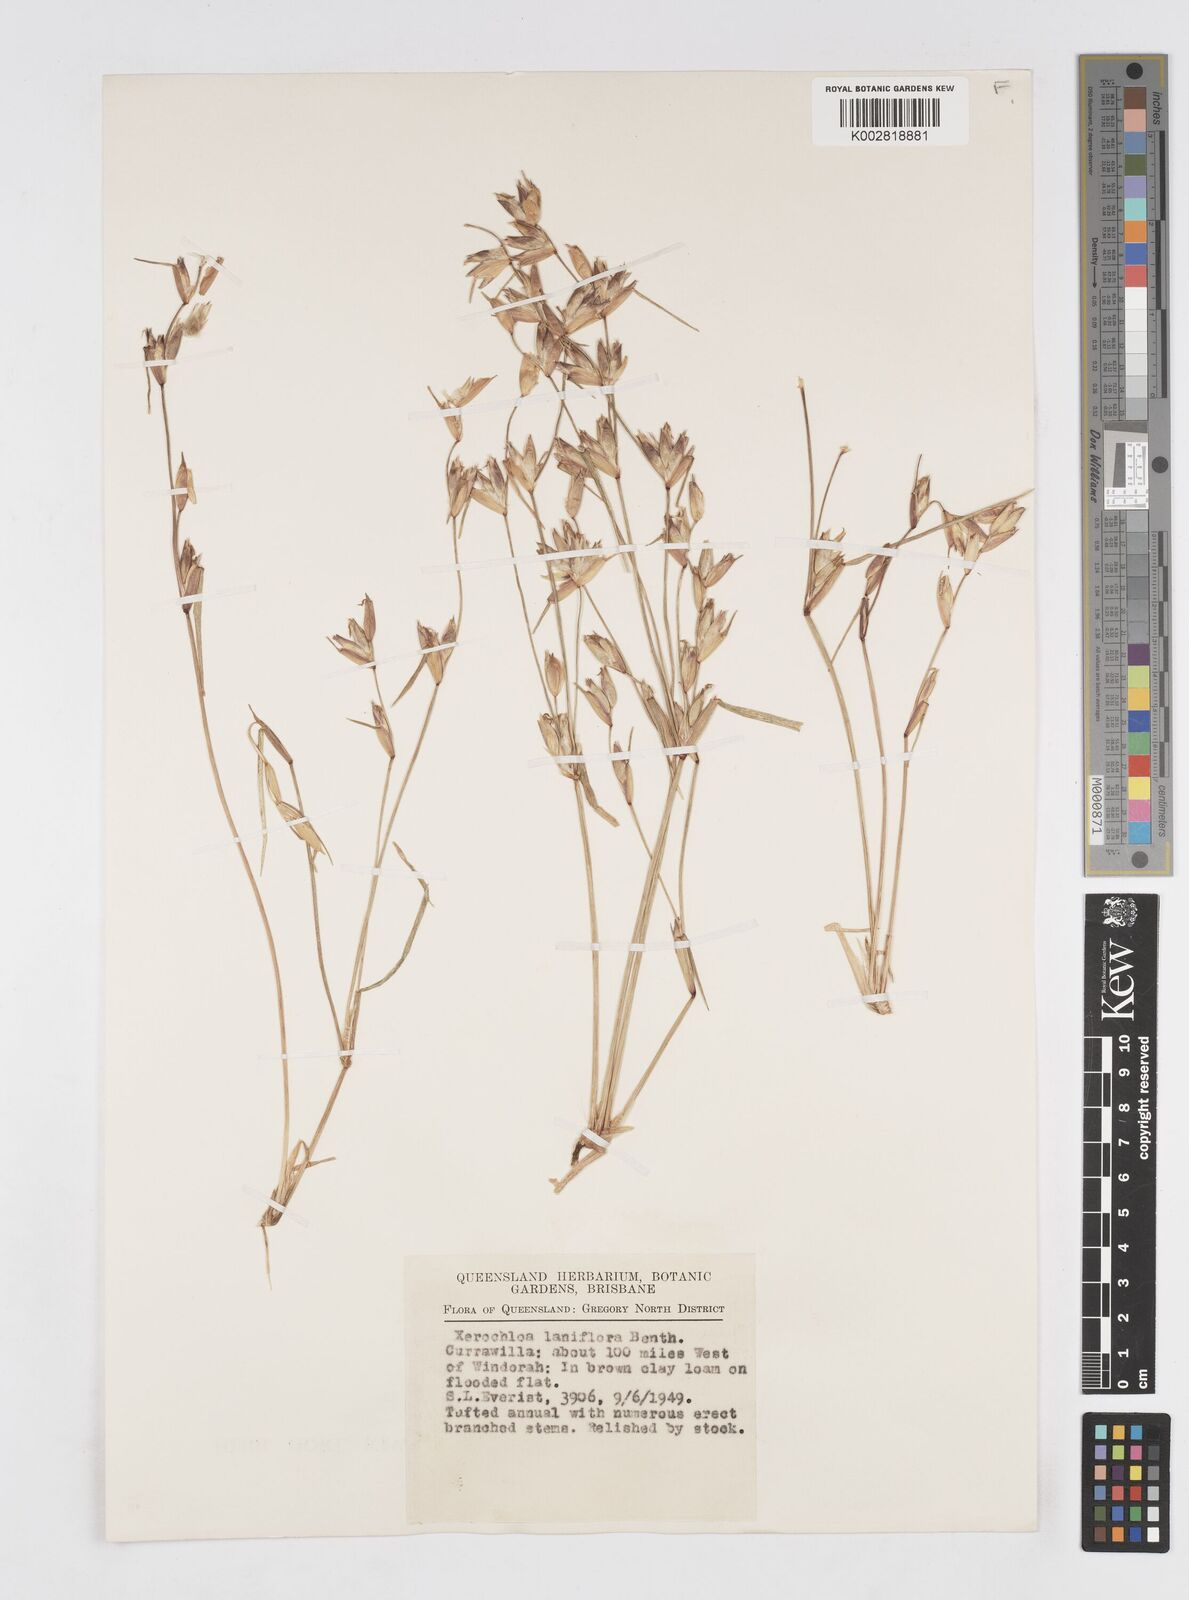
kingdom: Plantae
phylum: Tracheophyta
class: Liliopsida
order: Poales
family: Poaceae
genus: Xerochloa
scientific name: Xerochloa laniflora
